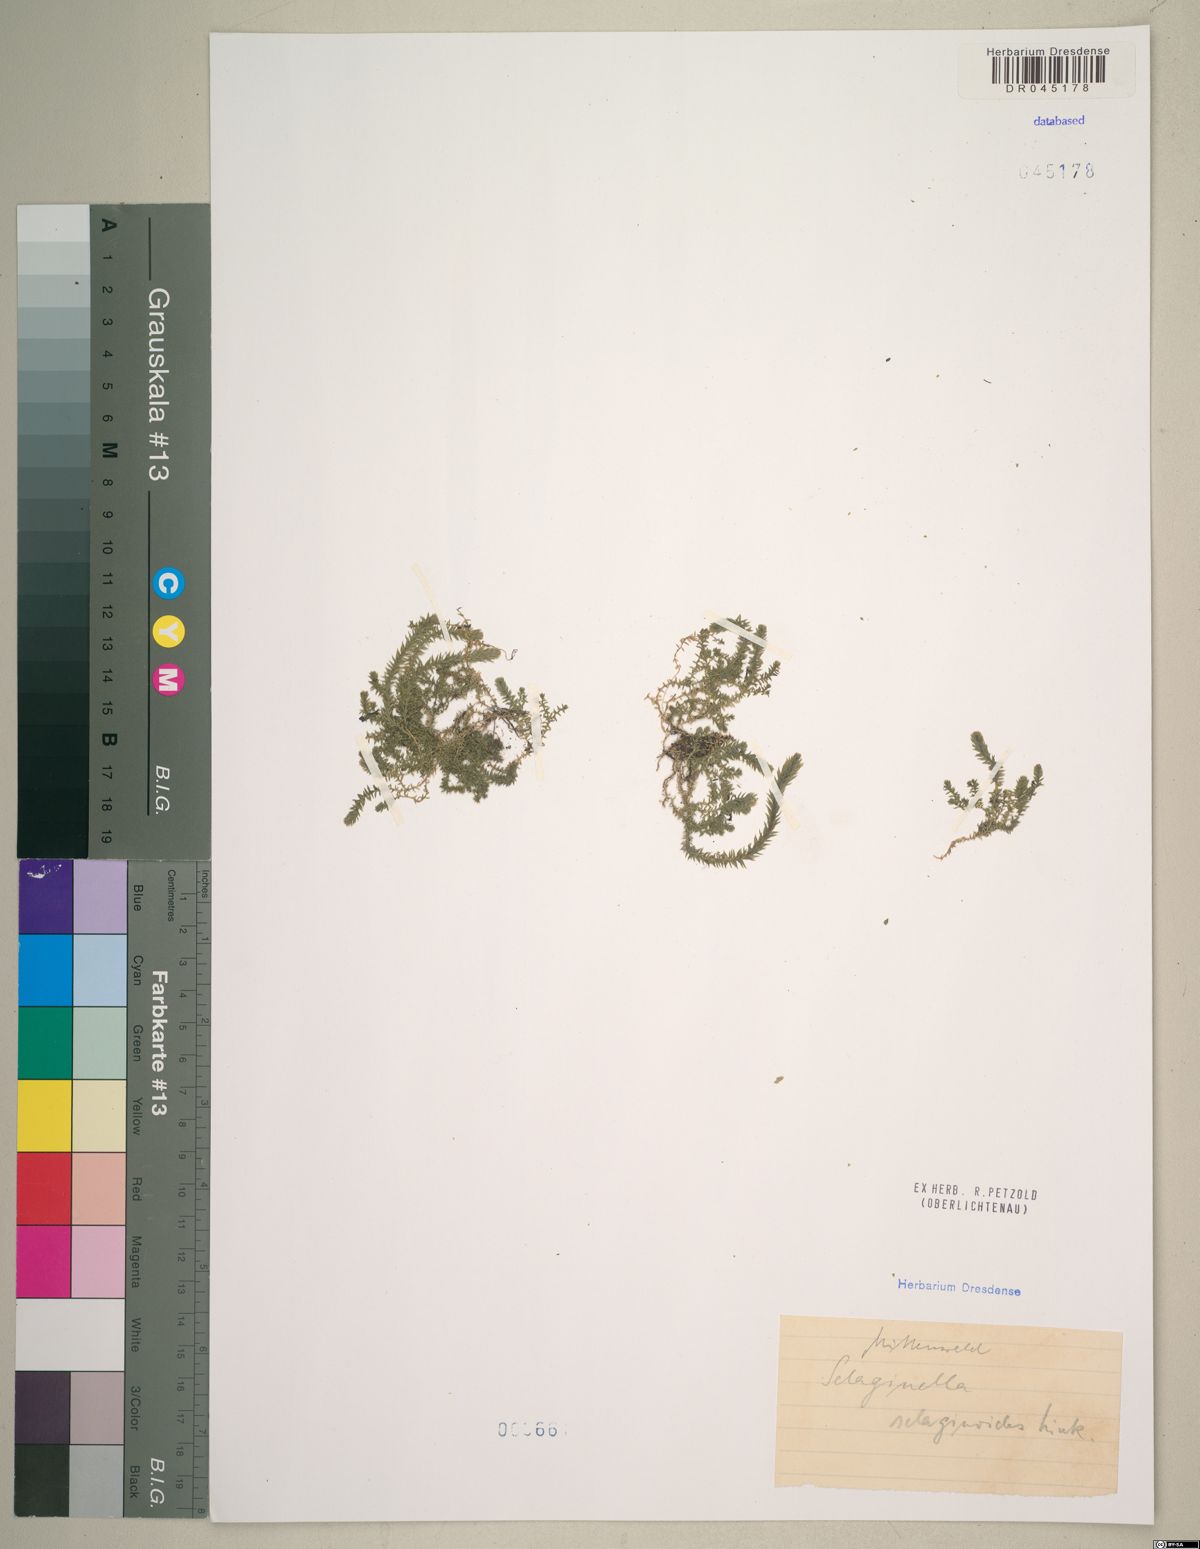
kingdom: Plantae
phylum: Tracheophyta
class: Lycopodiopsida
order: Selaginellales
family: Selaginellaceae
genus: Selaginella
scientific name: Selaginella selaginoides
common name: Prickly mountain-moss
